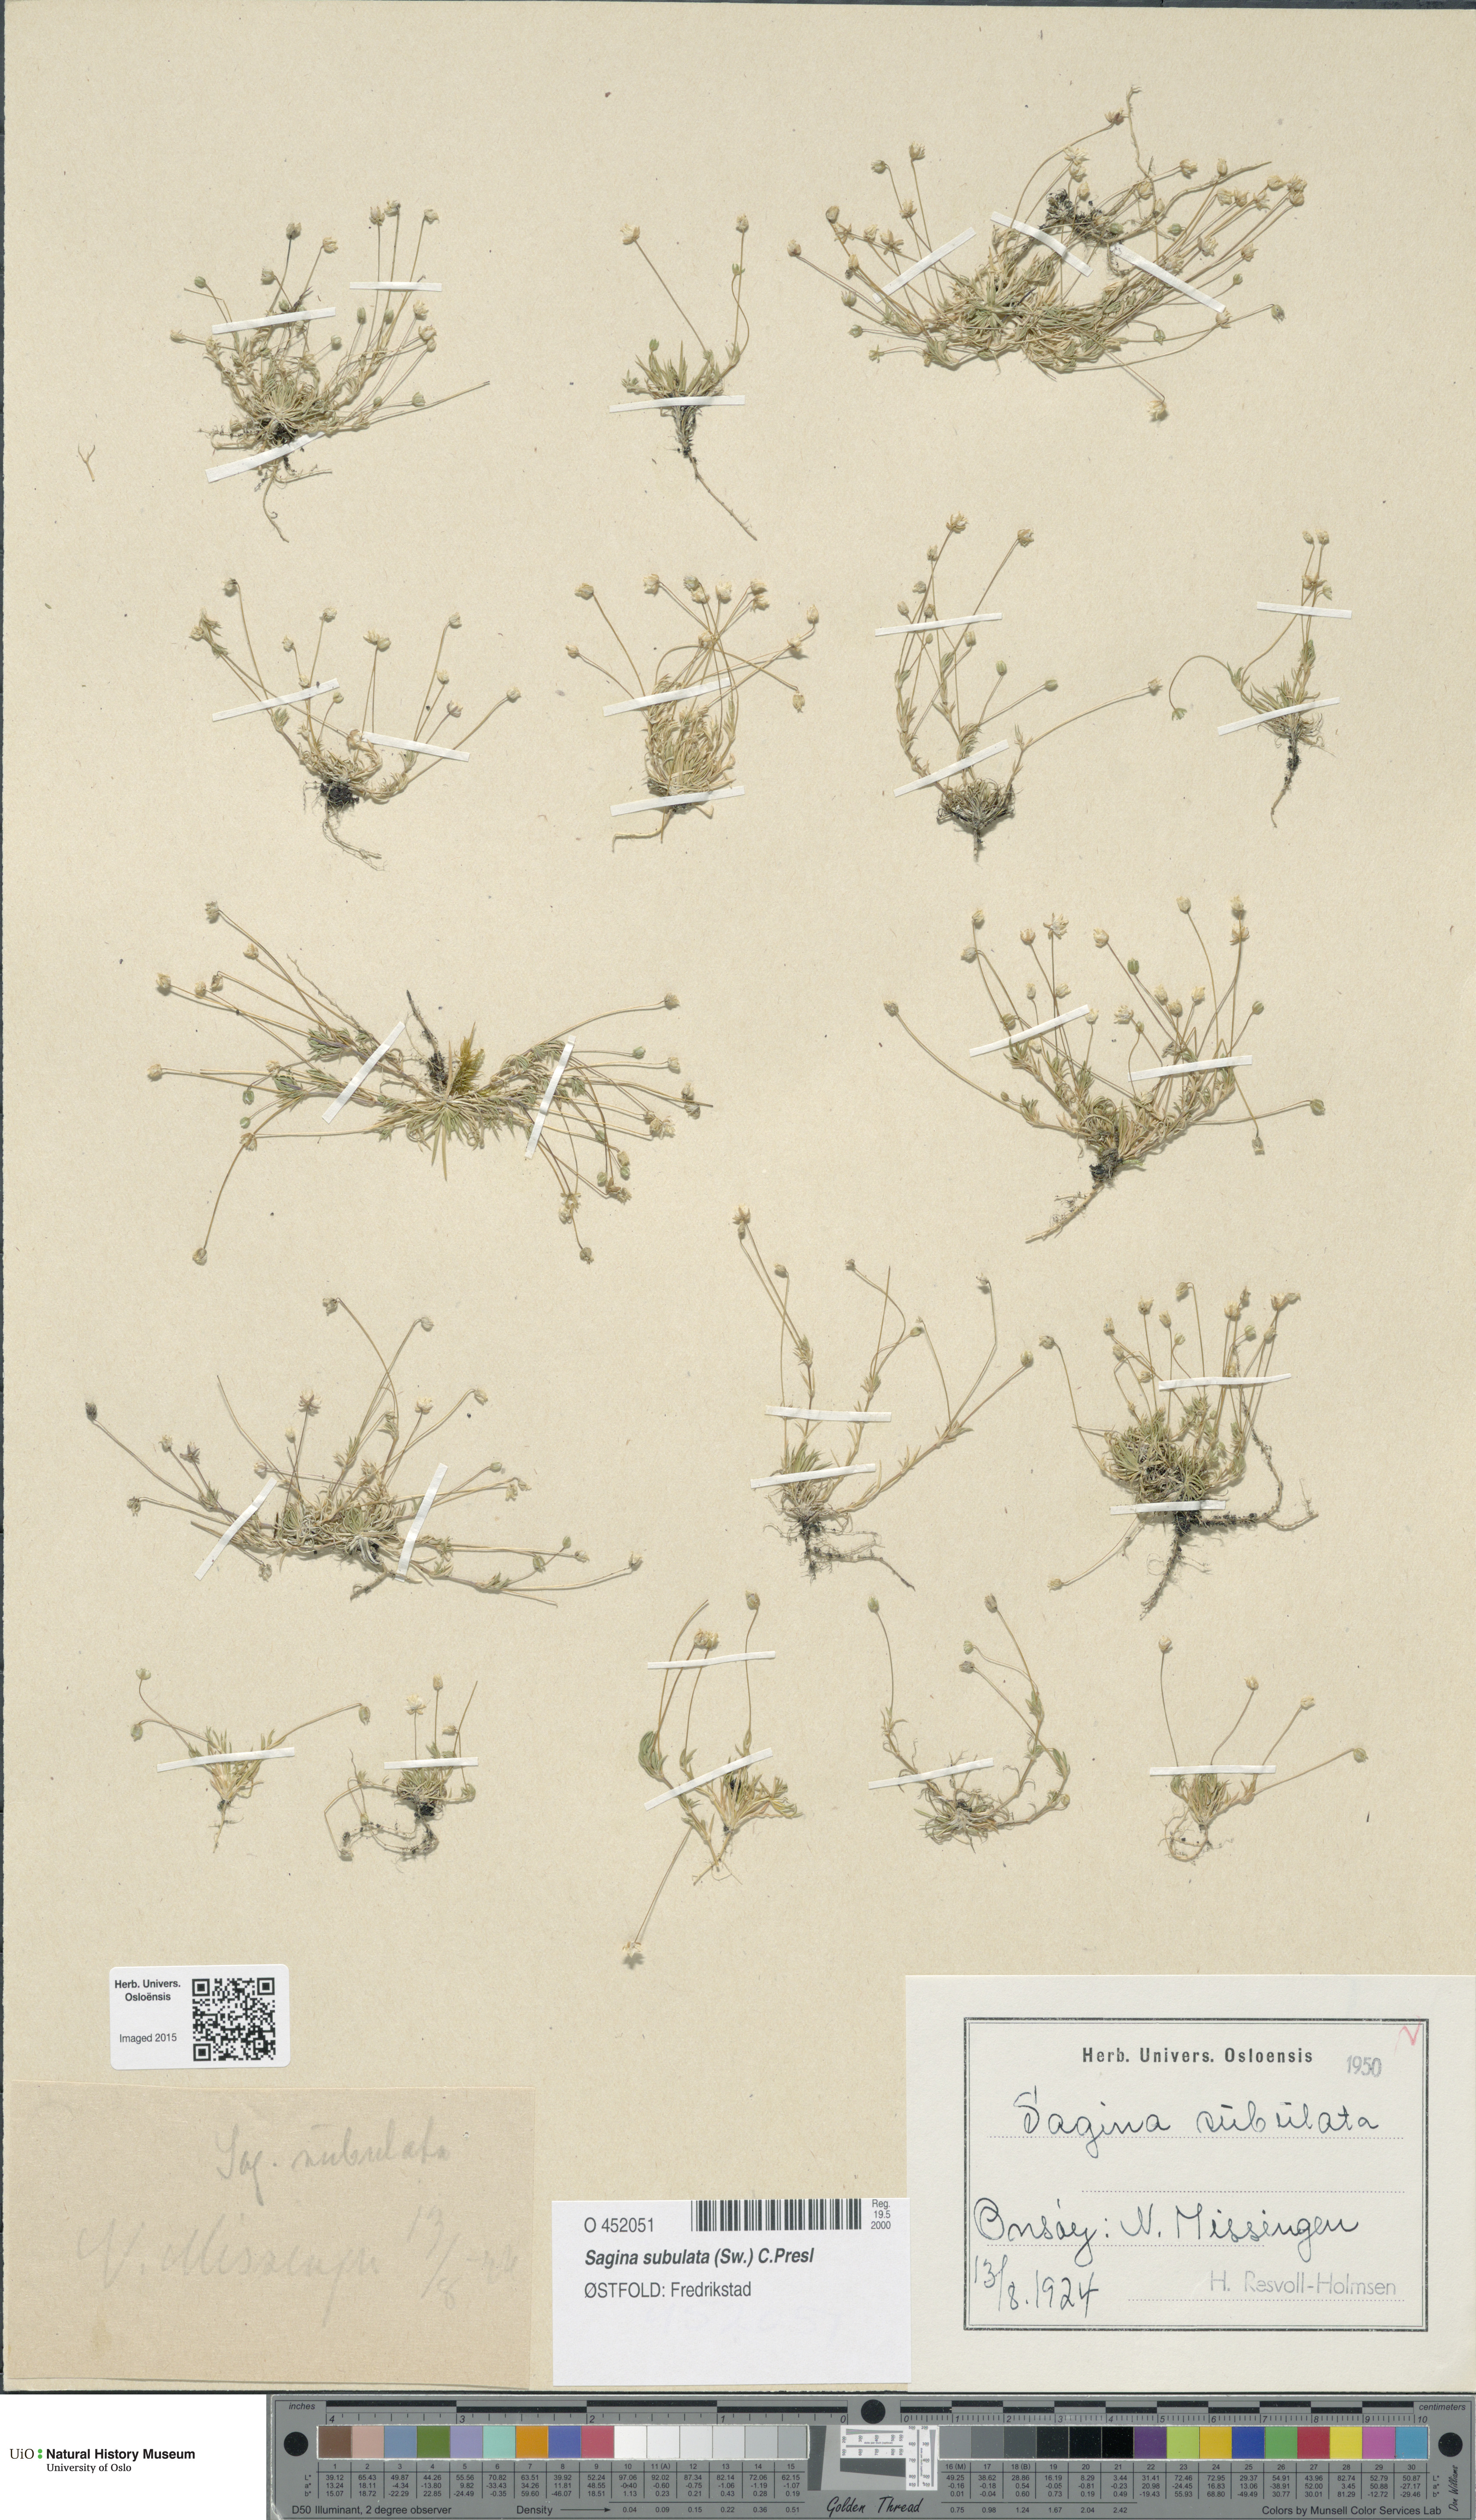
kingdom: Plantae
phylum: Tracheophyta
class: Magnoliopsida
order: Caryophyllales
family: Caryophyllaceae
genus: Sagina
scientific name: Sagina alexandrae
